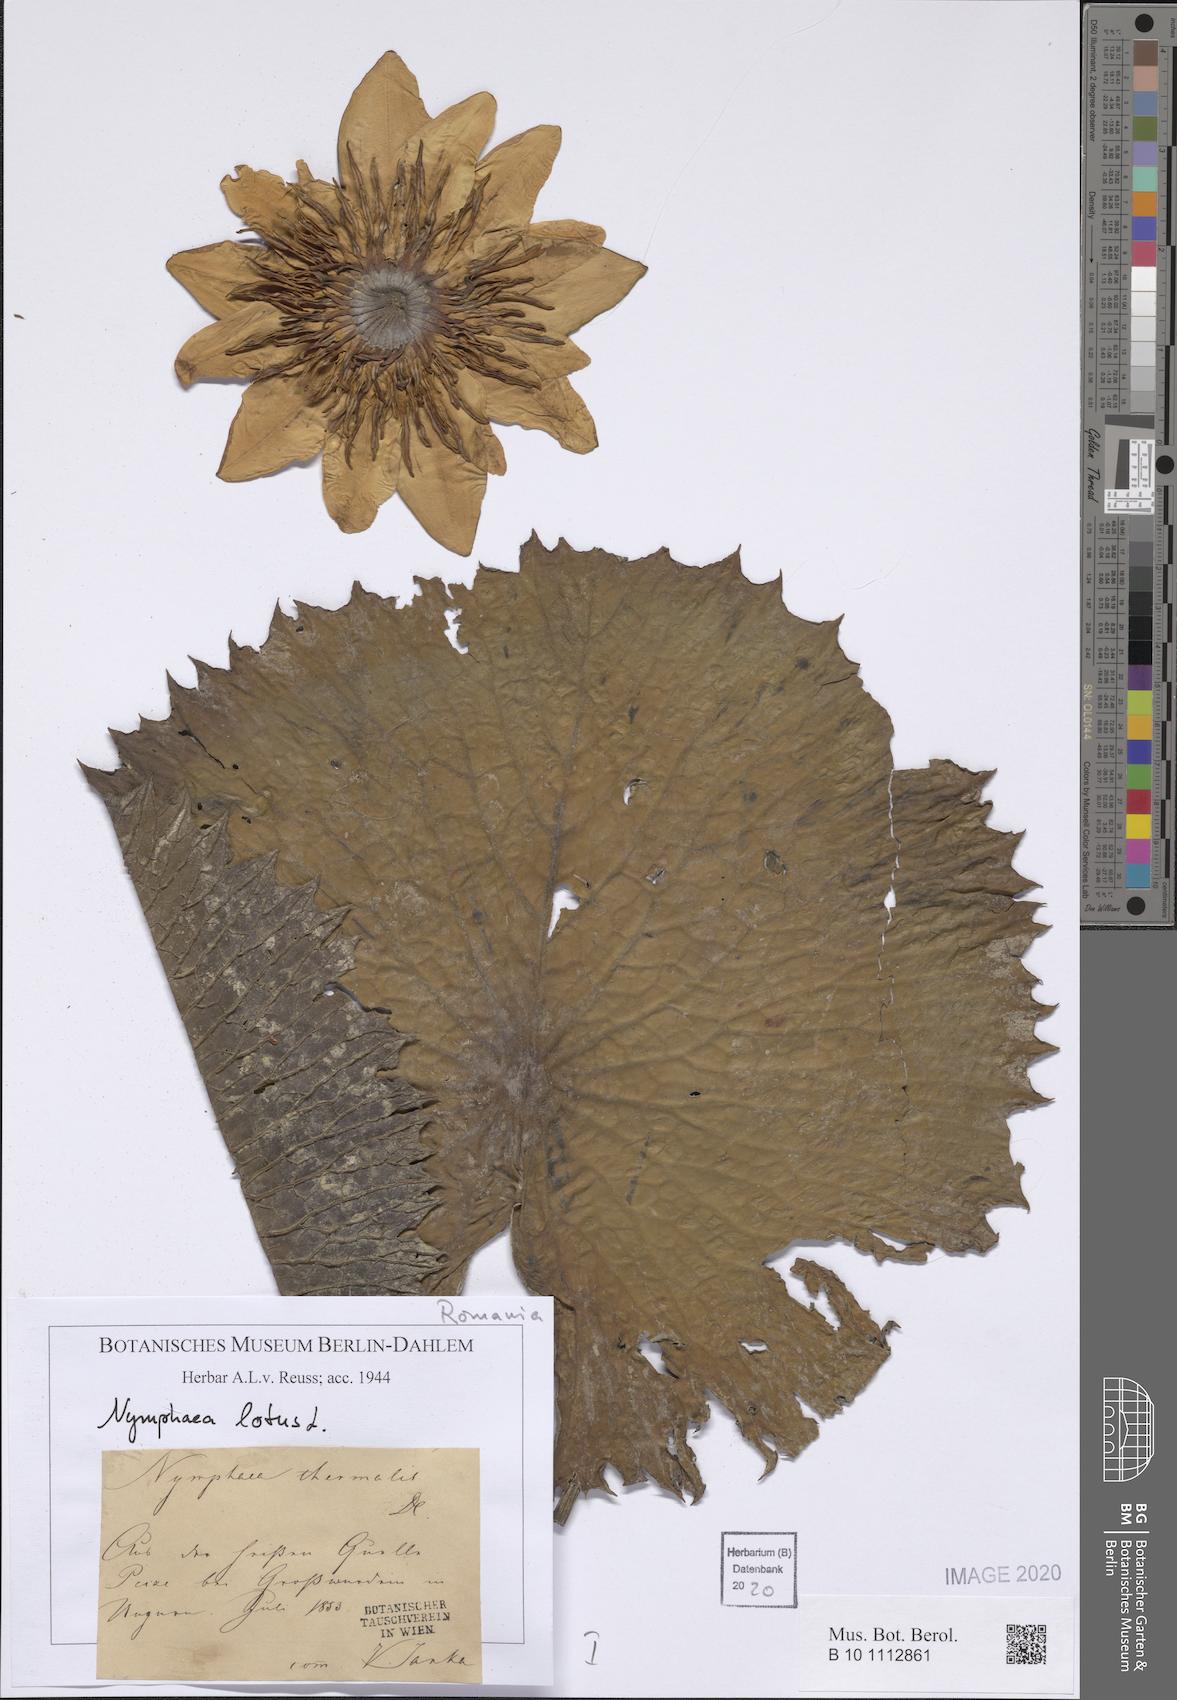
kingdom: Plantae
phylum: Tracheophyta
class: Magnoliopsida
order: Nymphaeales
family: Nymphaeaceae
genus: Nymphaea
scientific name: Nymphaea lotus
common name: White egyptian lotus
